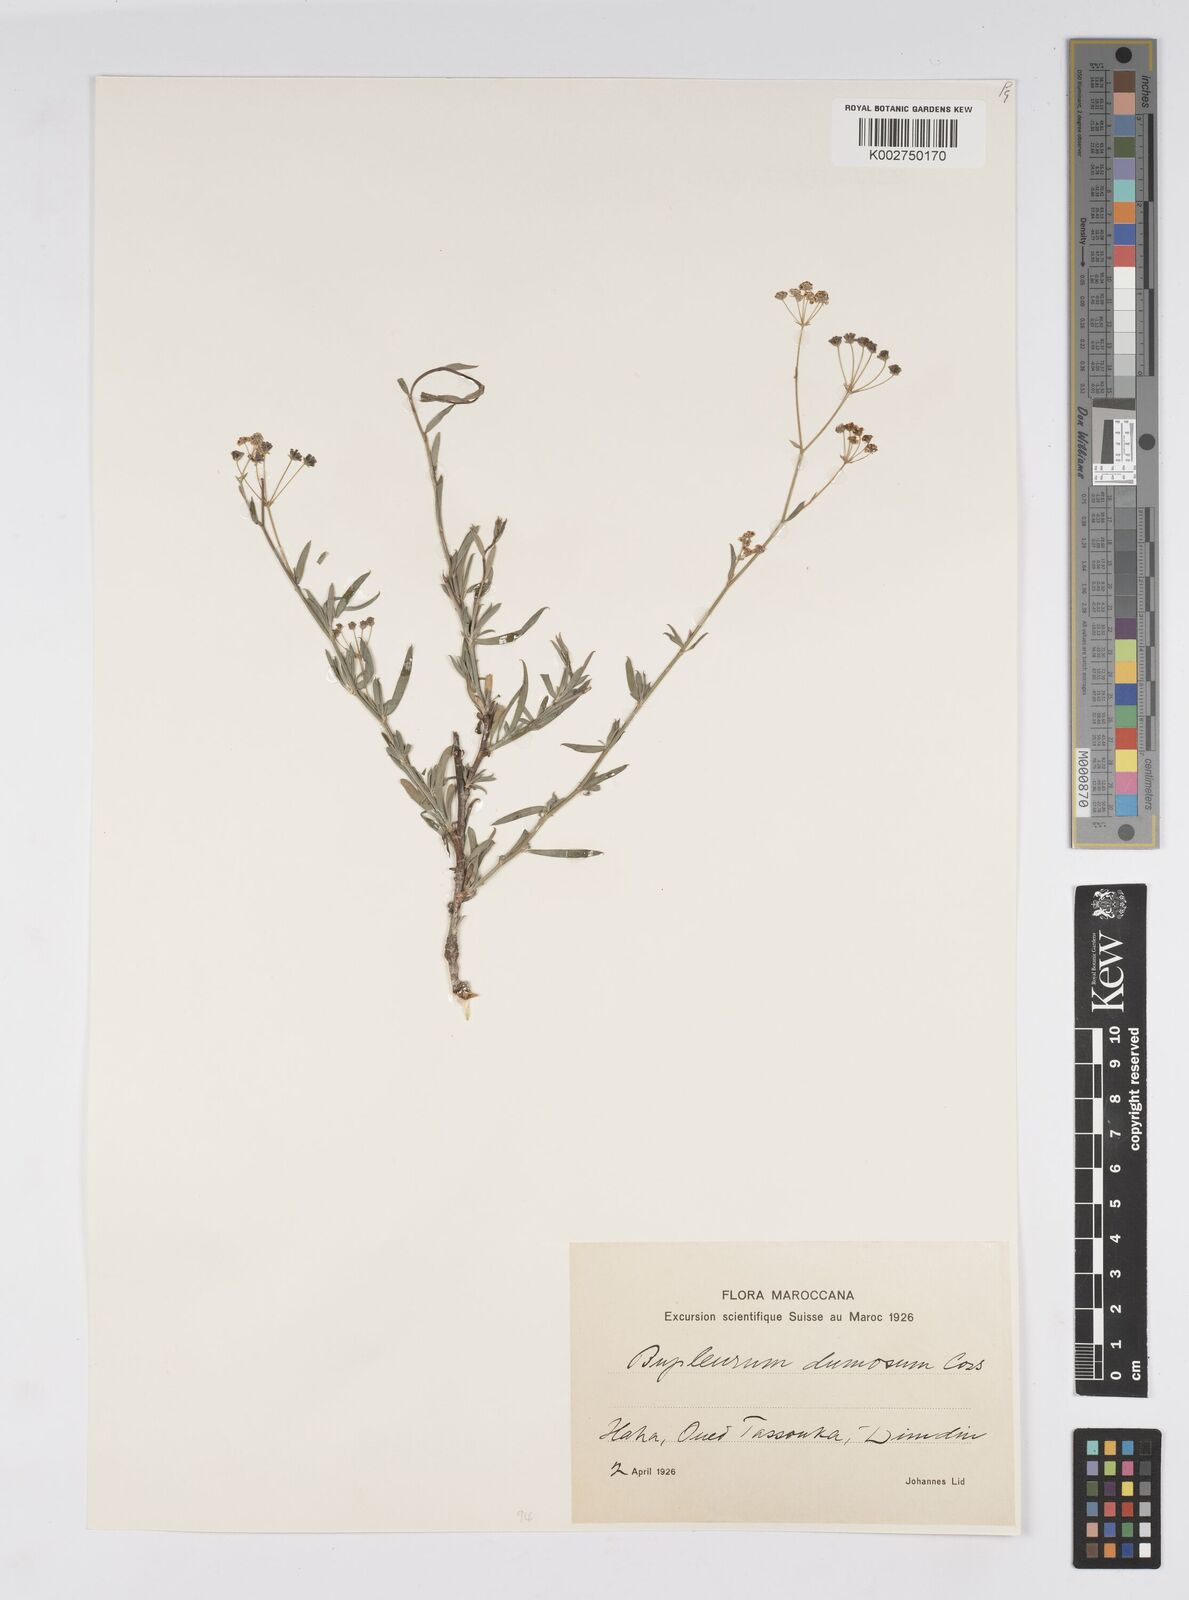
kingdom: Plantae
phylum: Tracheophyta
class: Magnoliopsida
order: Apiales
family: Apiaceae
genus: Bupleurum
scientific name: Bupleurum dumosum
